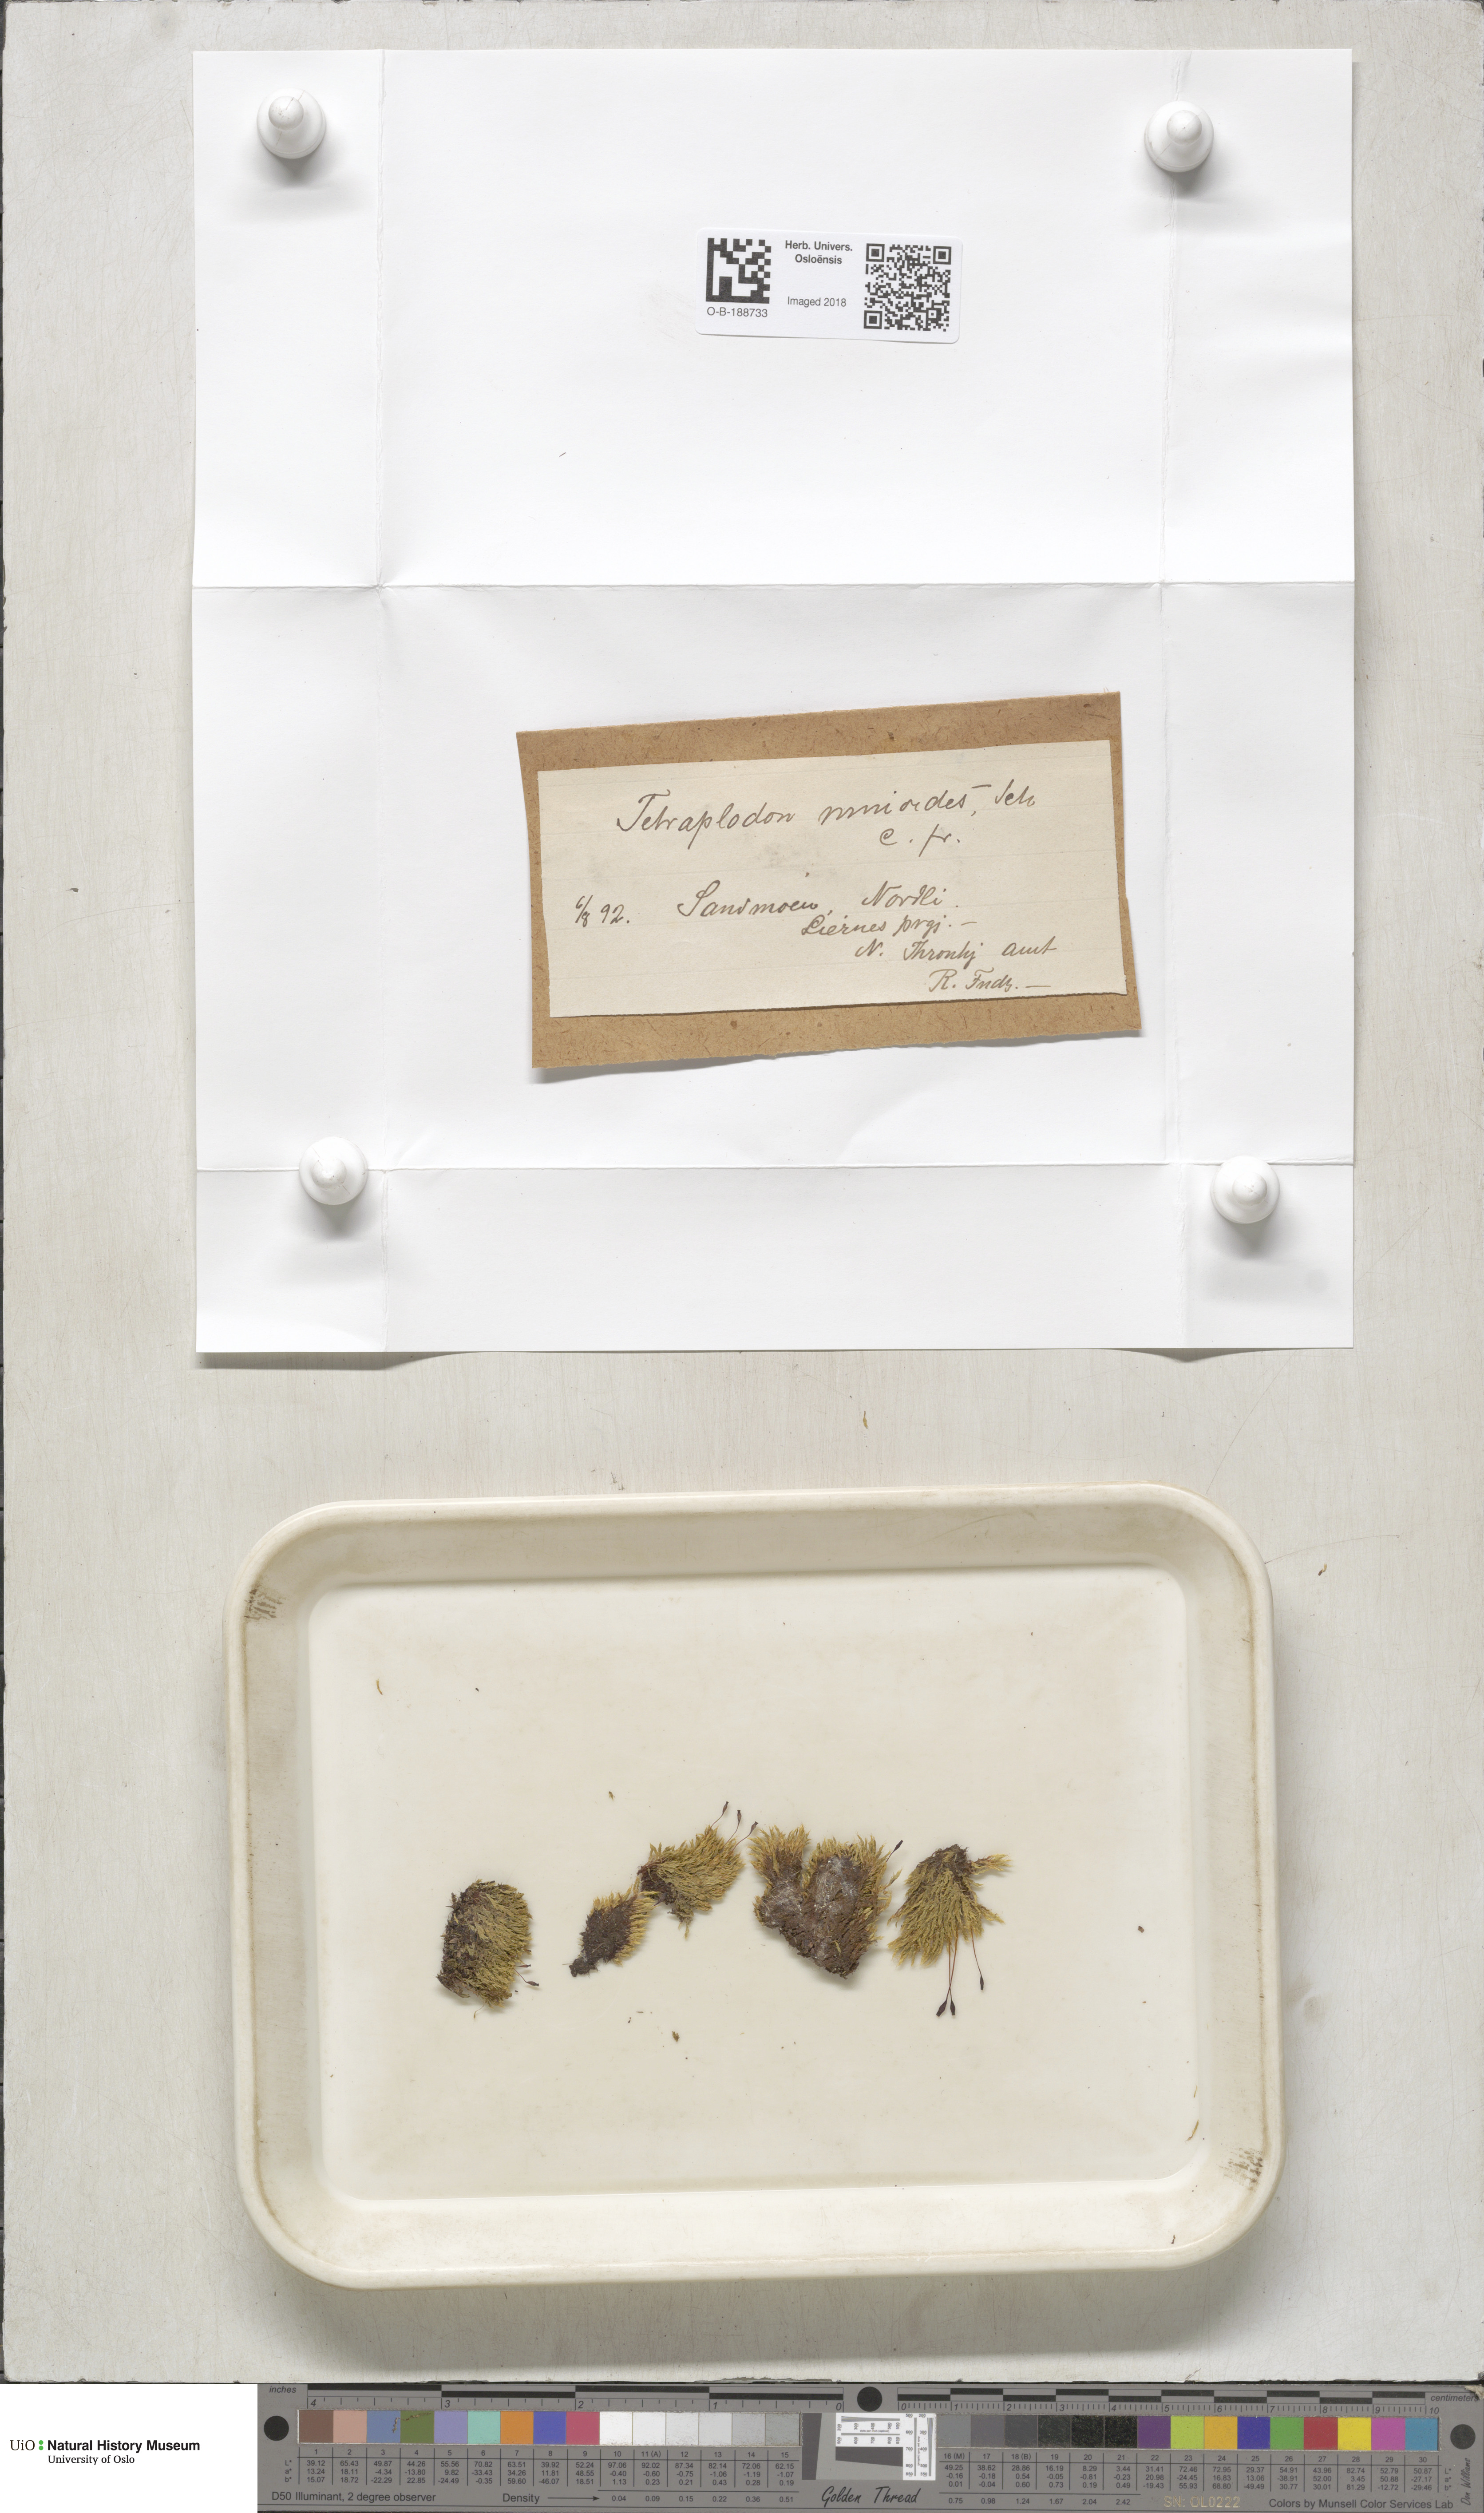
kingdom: Plantae
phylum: Bryophyta
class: Bryopsida
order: Splachnales
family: Splachnaceae
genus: Tetraplodon
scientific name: Tetraplodon mnioides
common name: Entire-leaved nitrogen moss
